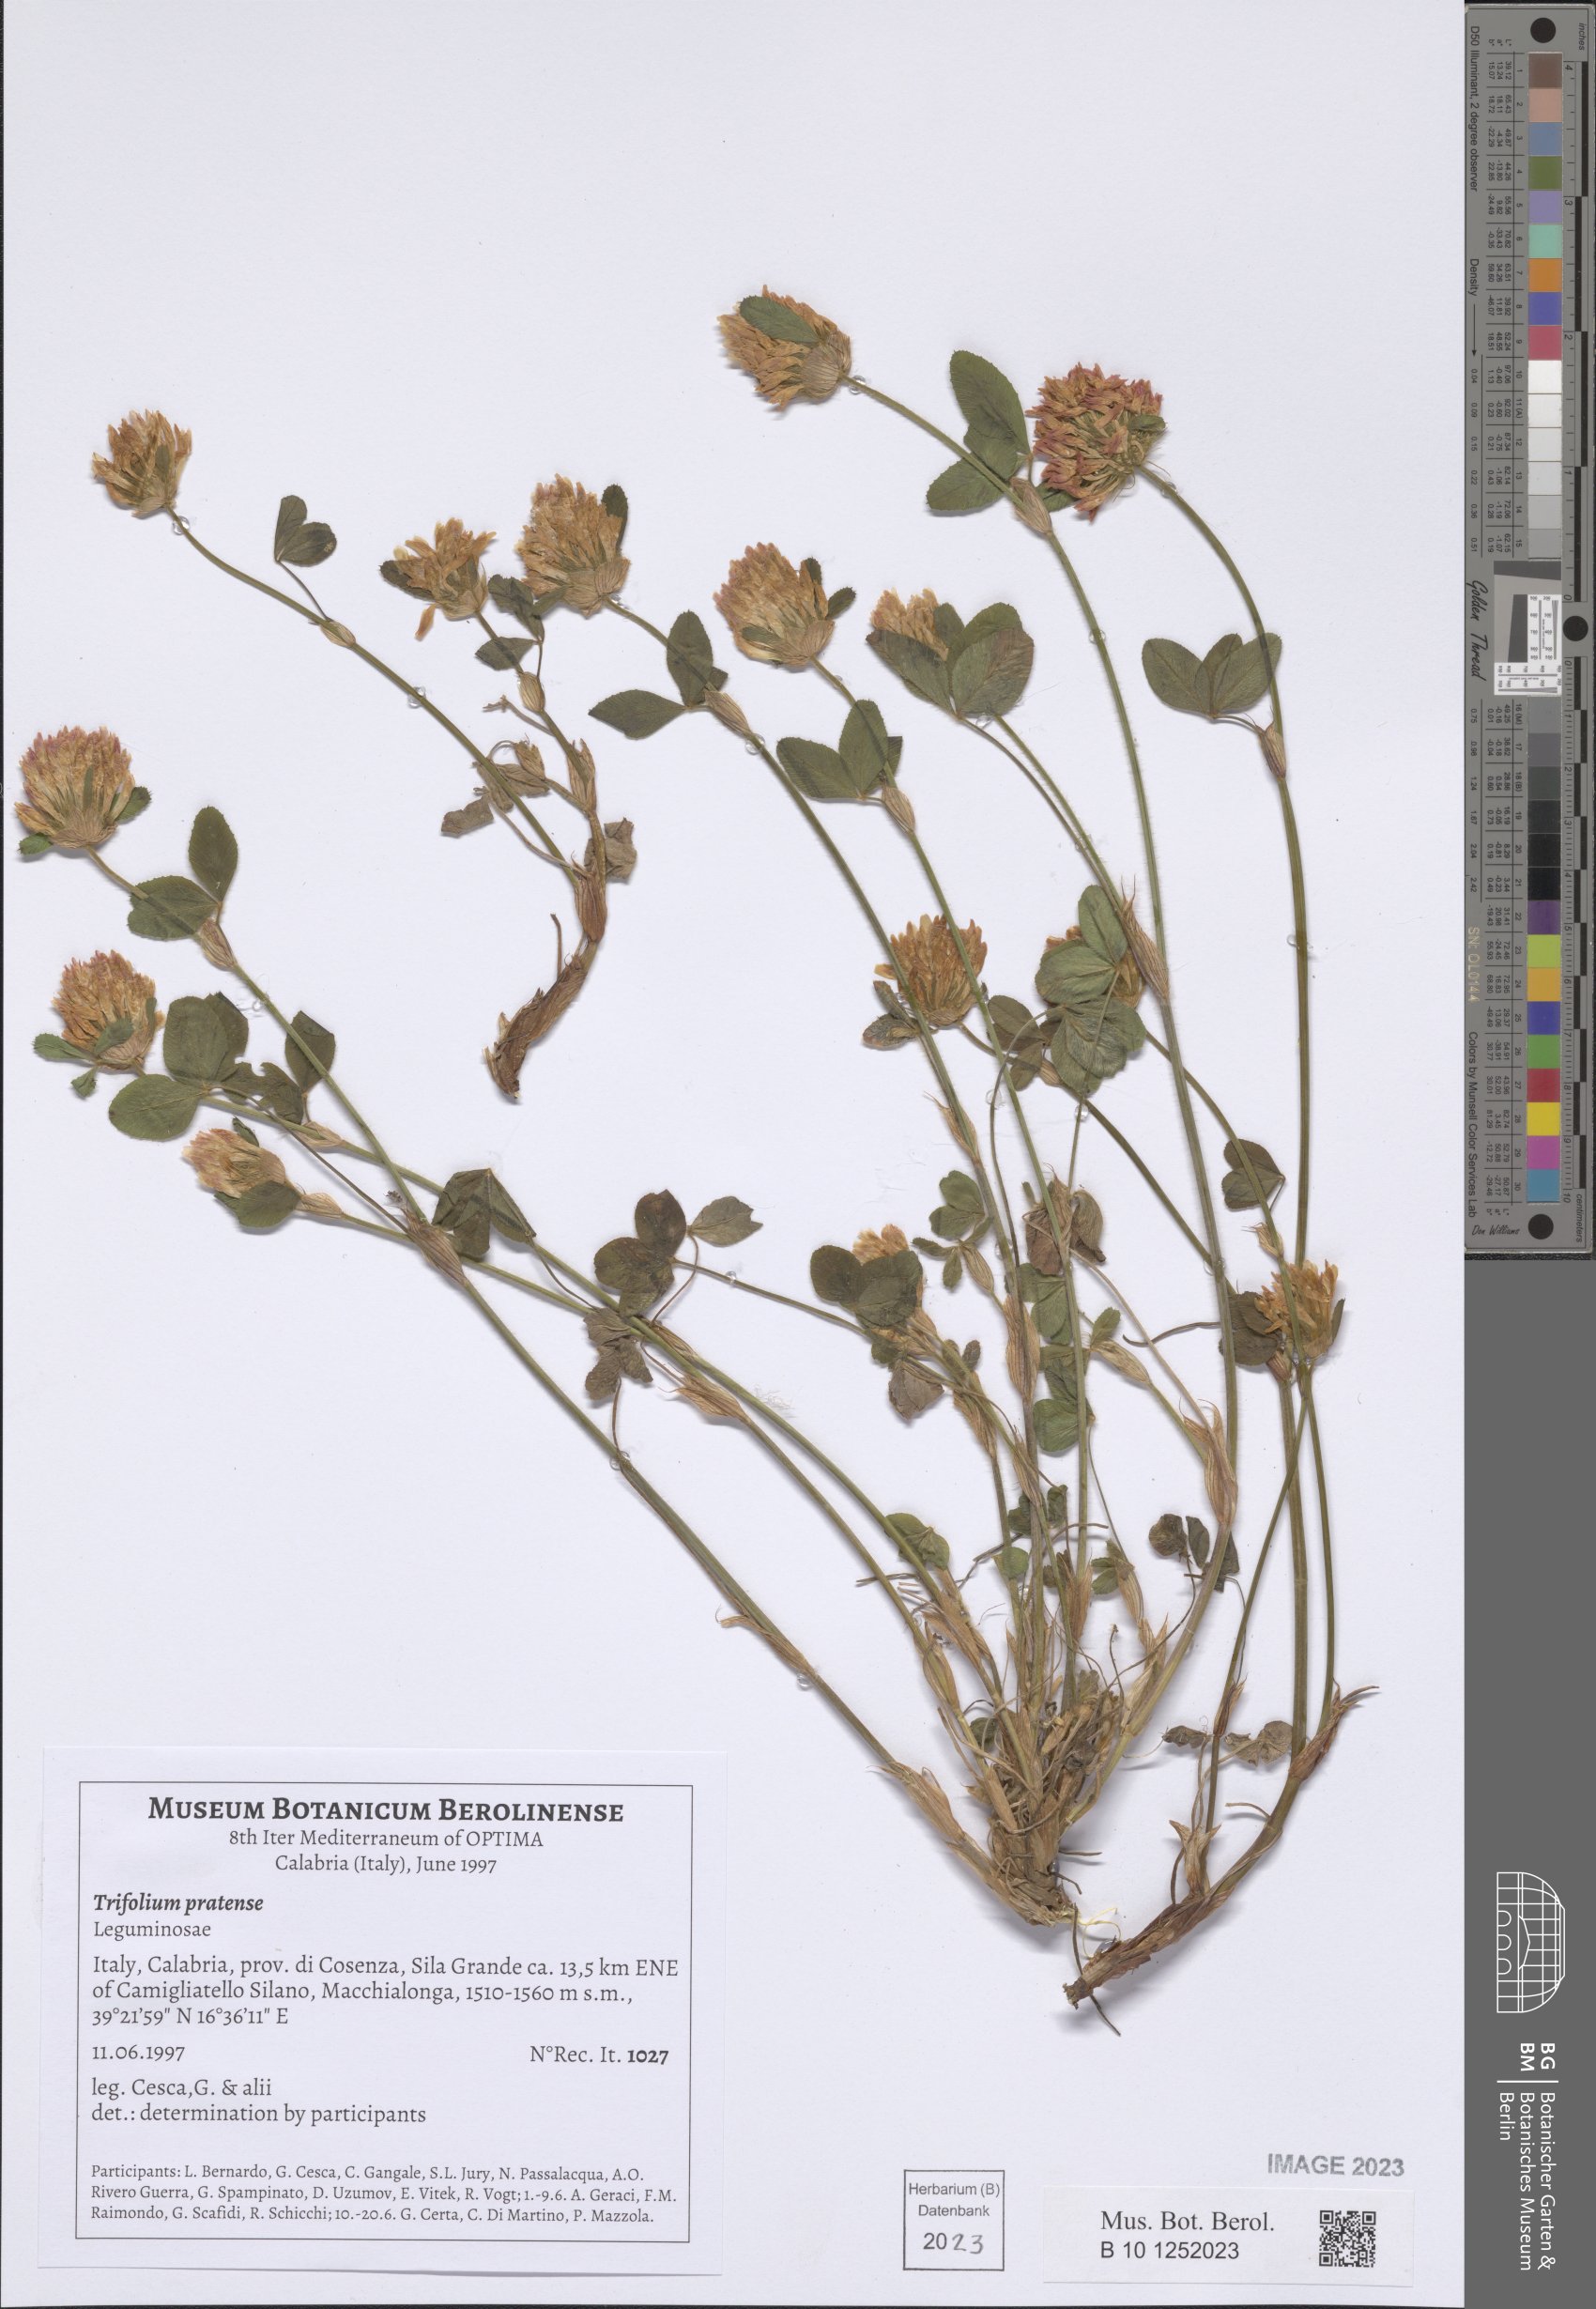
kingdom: Plantae
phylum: Tracheophyta
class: Magnoliopsida
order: Fabales
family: Fabaceae
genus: Trifolium
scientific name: Trifolium pratense
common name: Red clover
